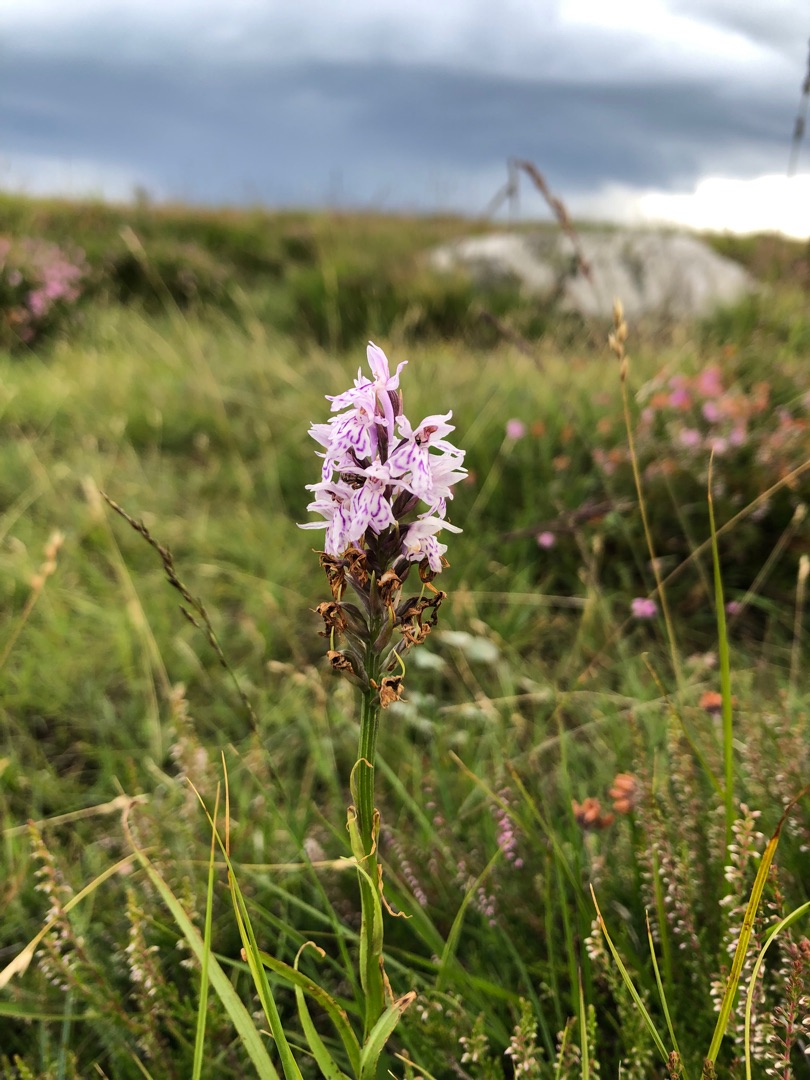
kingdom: Plantae
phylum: Tracheophyta
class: Liliopsida
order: Asparagales
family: Orchidaceae
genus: Dactylorhiza
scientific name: Dactylorhiza maculata
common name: Plettet gøgeurt
